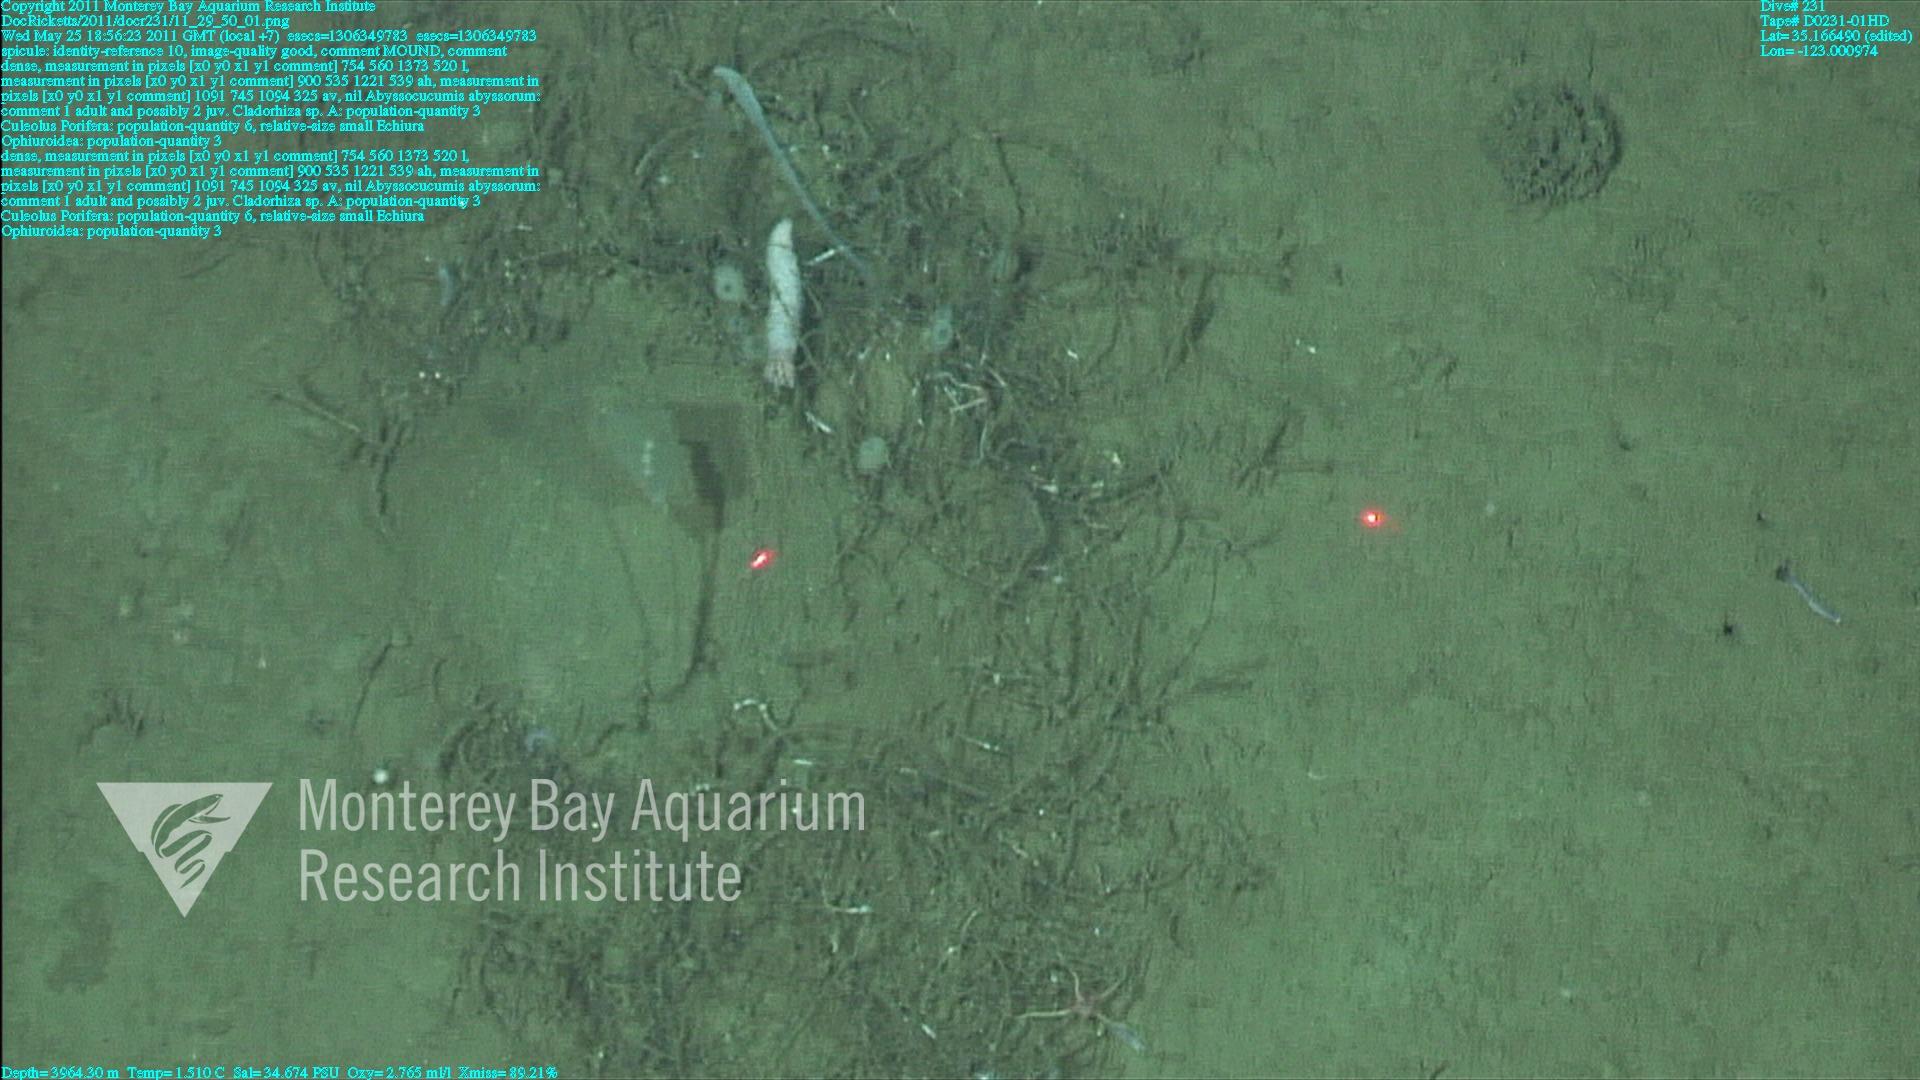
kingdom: Animalia
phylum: Porifera
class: Demospongiae
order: Poecilosclerida
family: Cladorhizidae
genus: Cladorhiza
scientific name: Cladorhiza
